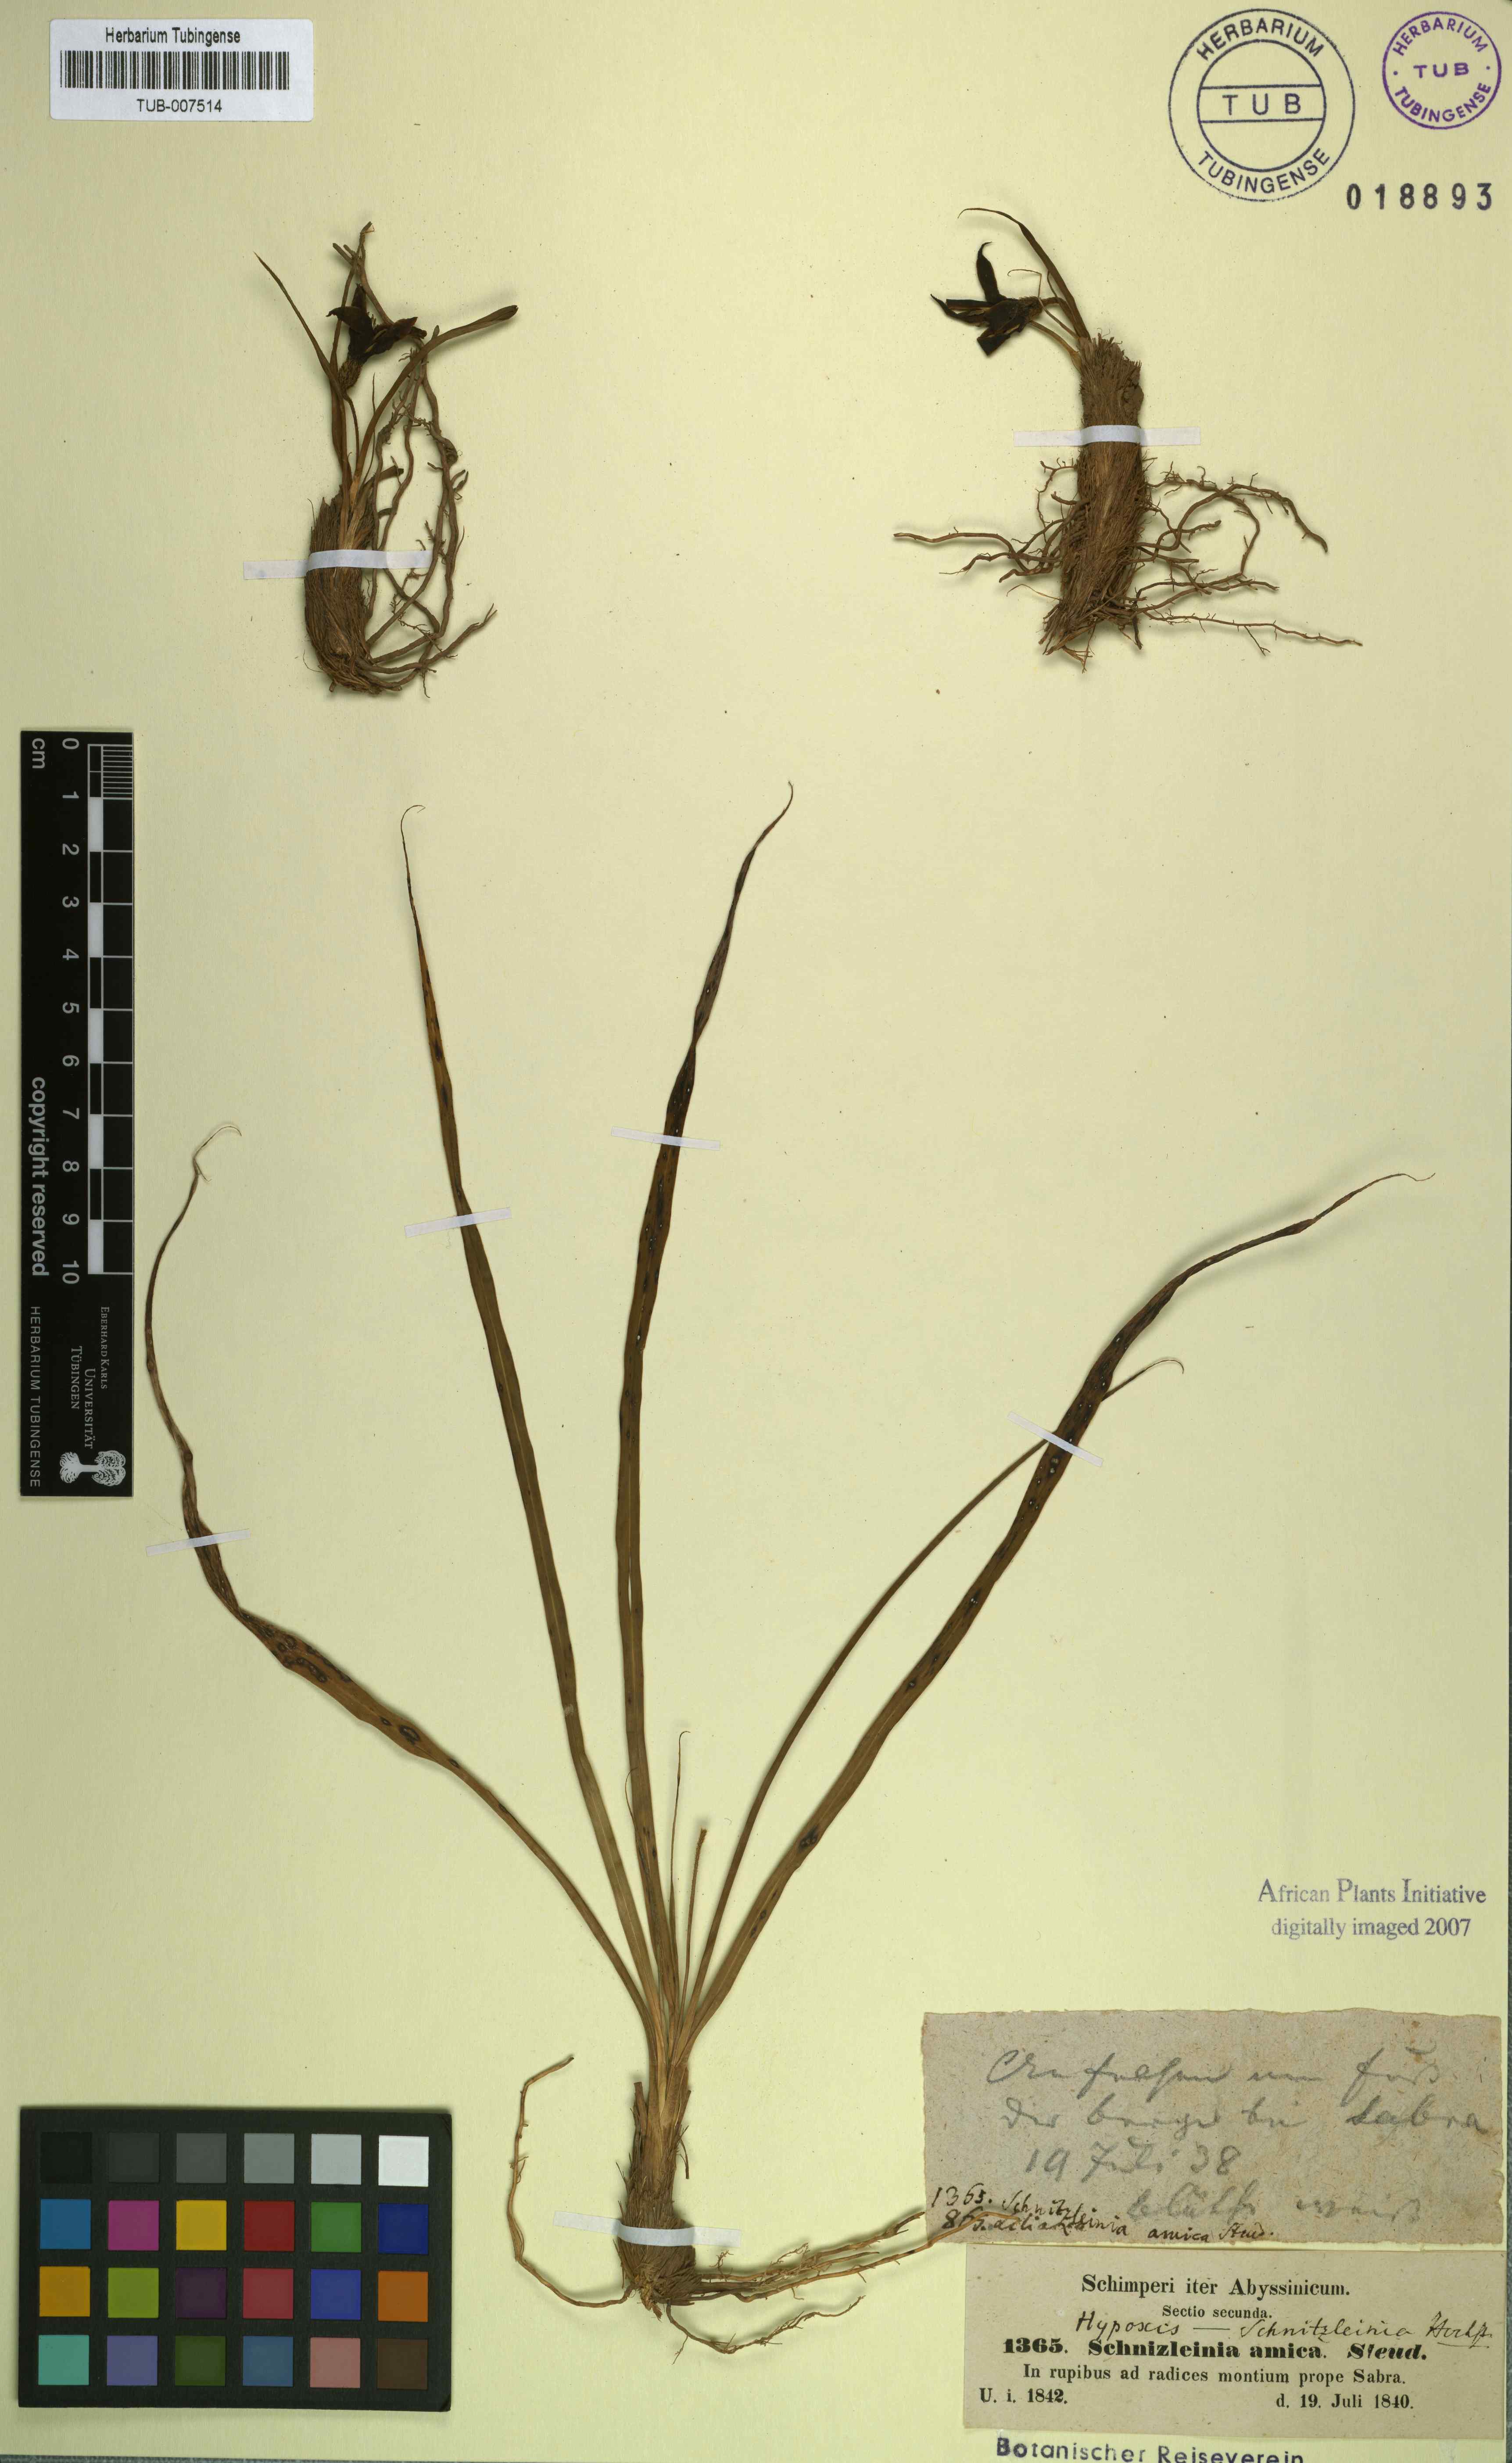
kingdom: Plantae
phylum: Tracheophyta
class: Liliopsida
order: Pandanales
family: Velloziaceae
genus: Xerophyta
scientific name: Xerophyta schnizleinia
